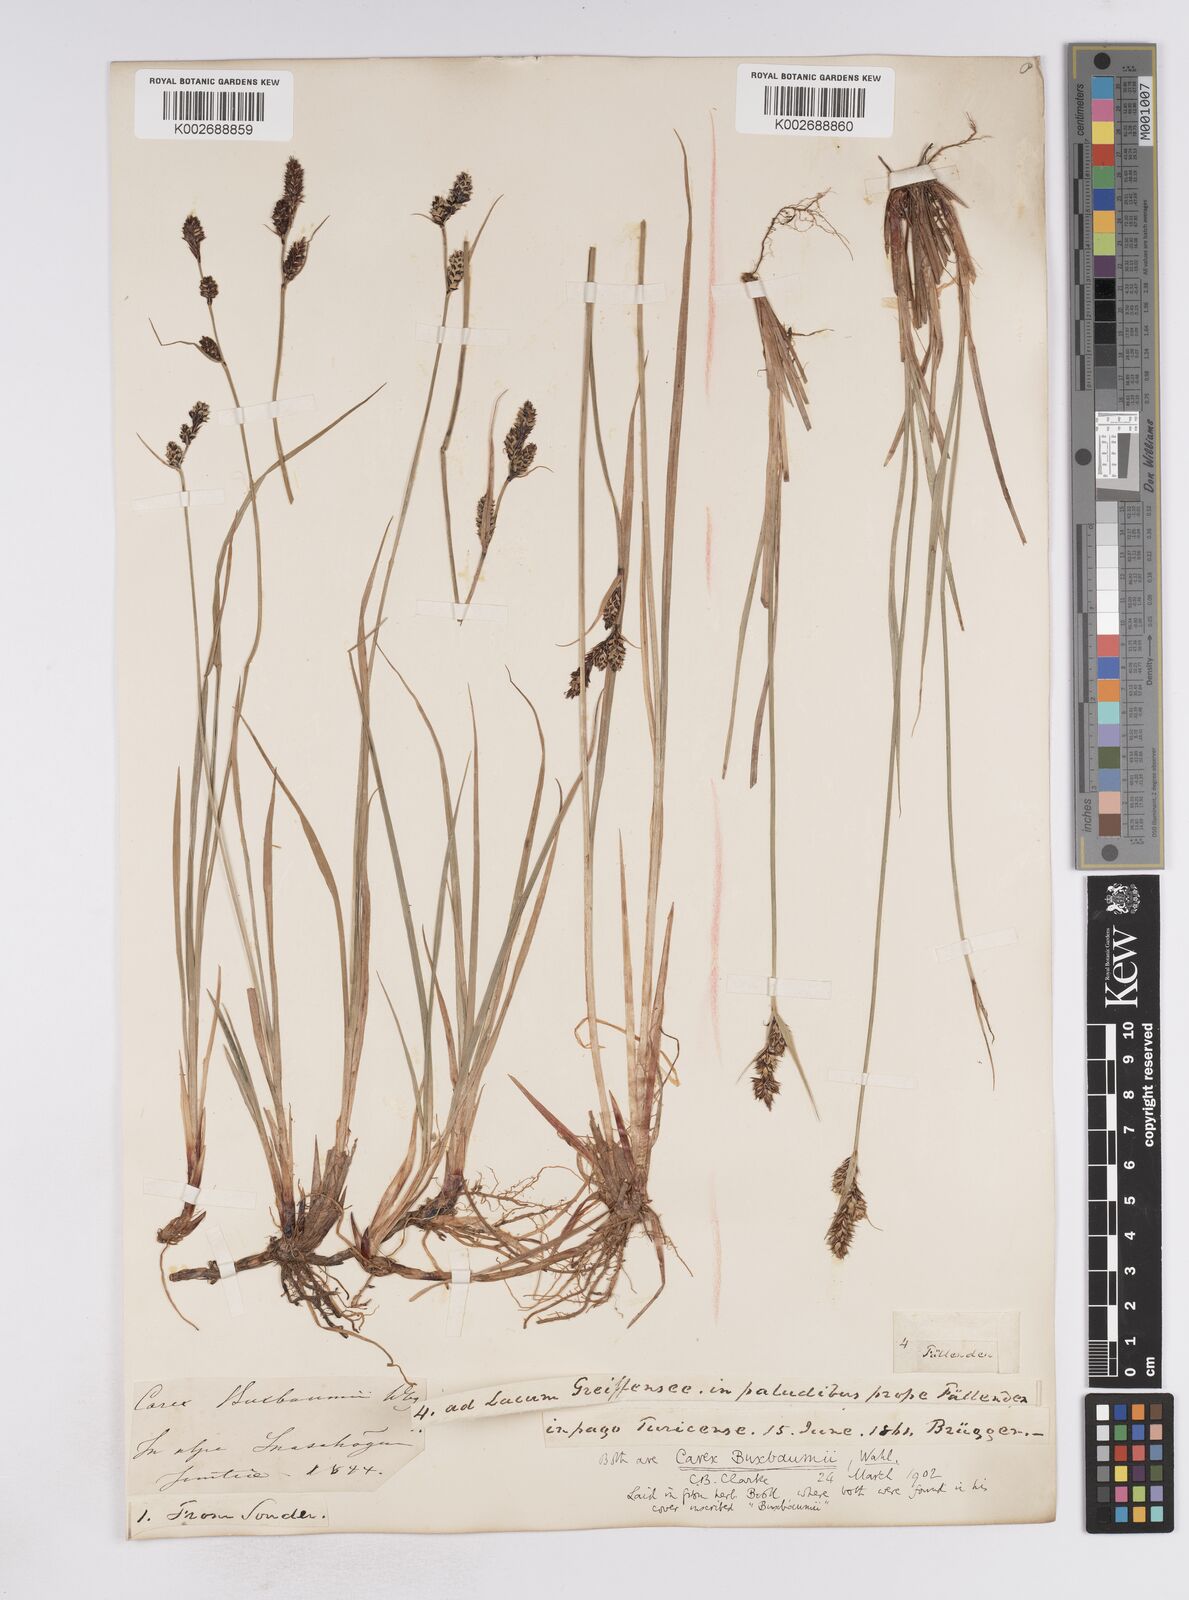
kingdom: Plantae
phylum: Tracheophyta
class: Liliopsida
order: Poales
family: Cyperaceae
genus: Carex
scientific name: Carex buxbaumii
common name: Club sedge
